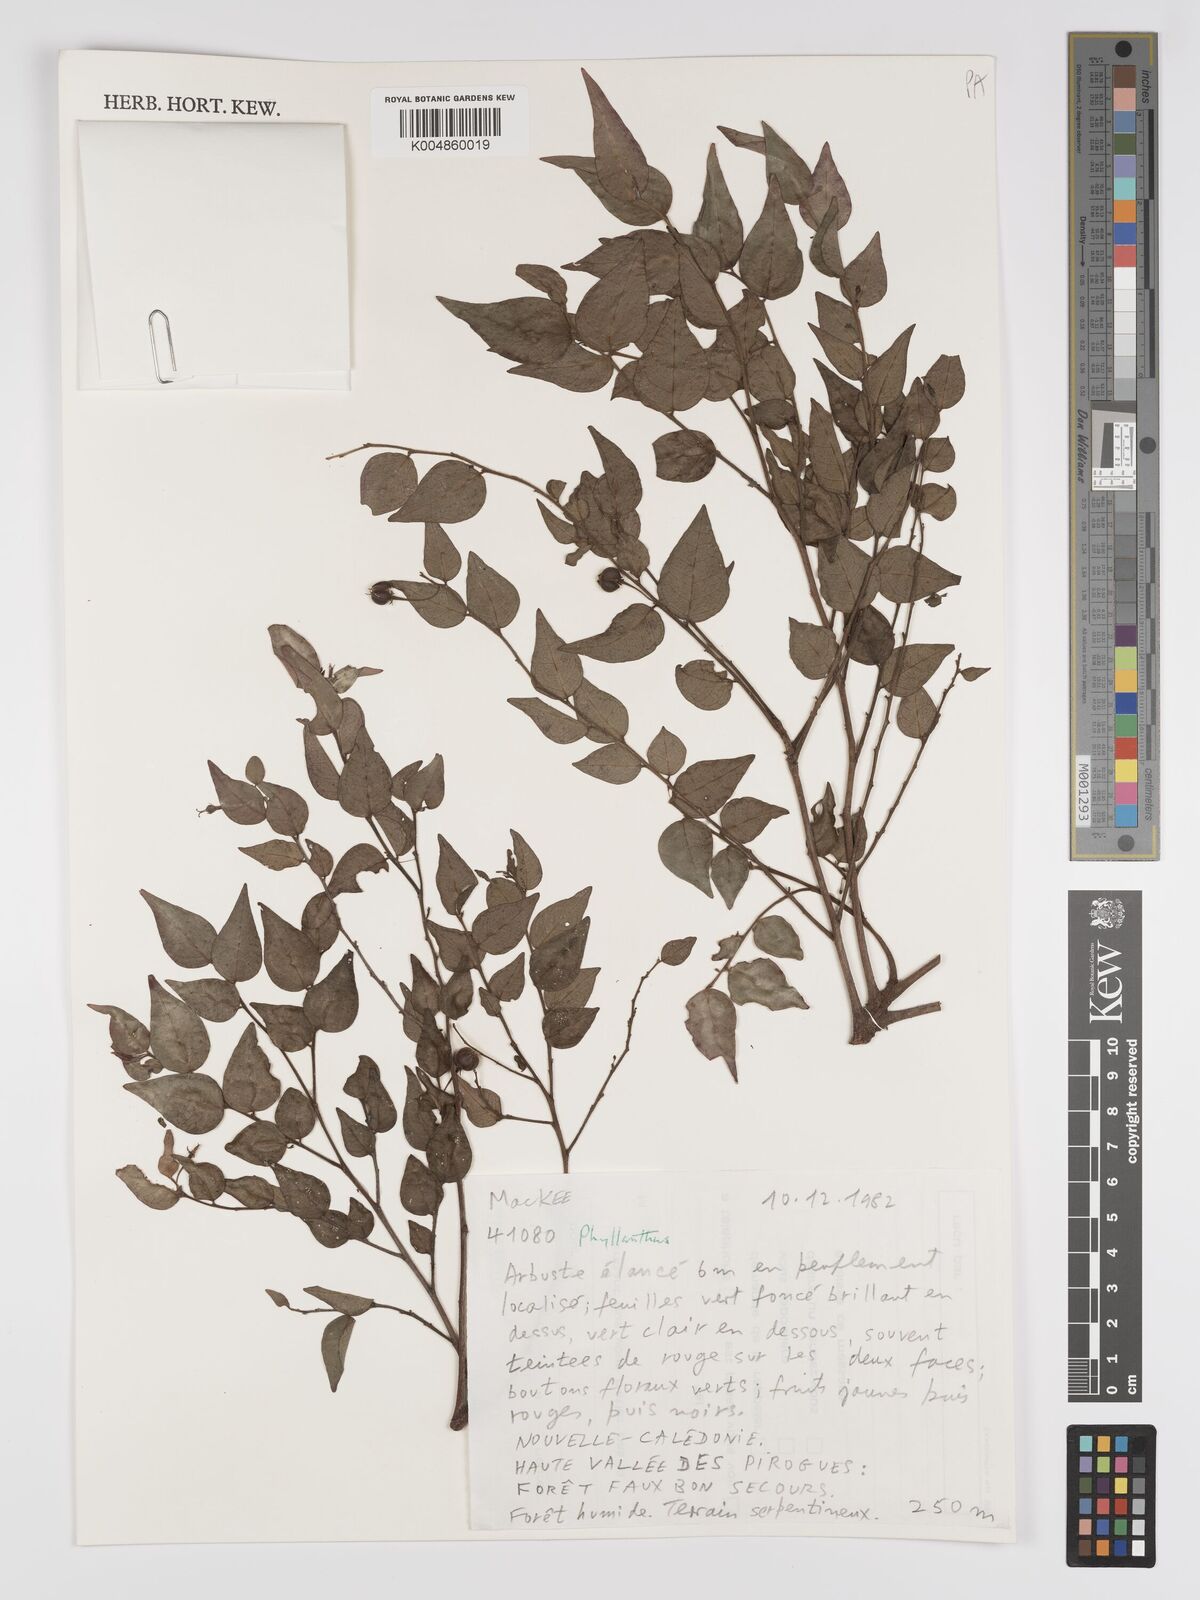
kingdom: Plantae
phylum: Tracheophyta
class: Magnoliopsida
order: Malpighiales
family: Phyllanthaceae
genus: Phyllanthus
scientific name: Phyllanthus
